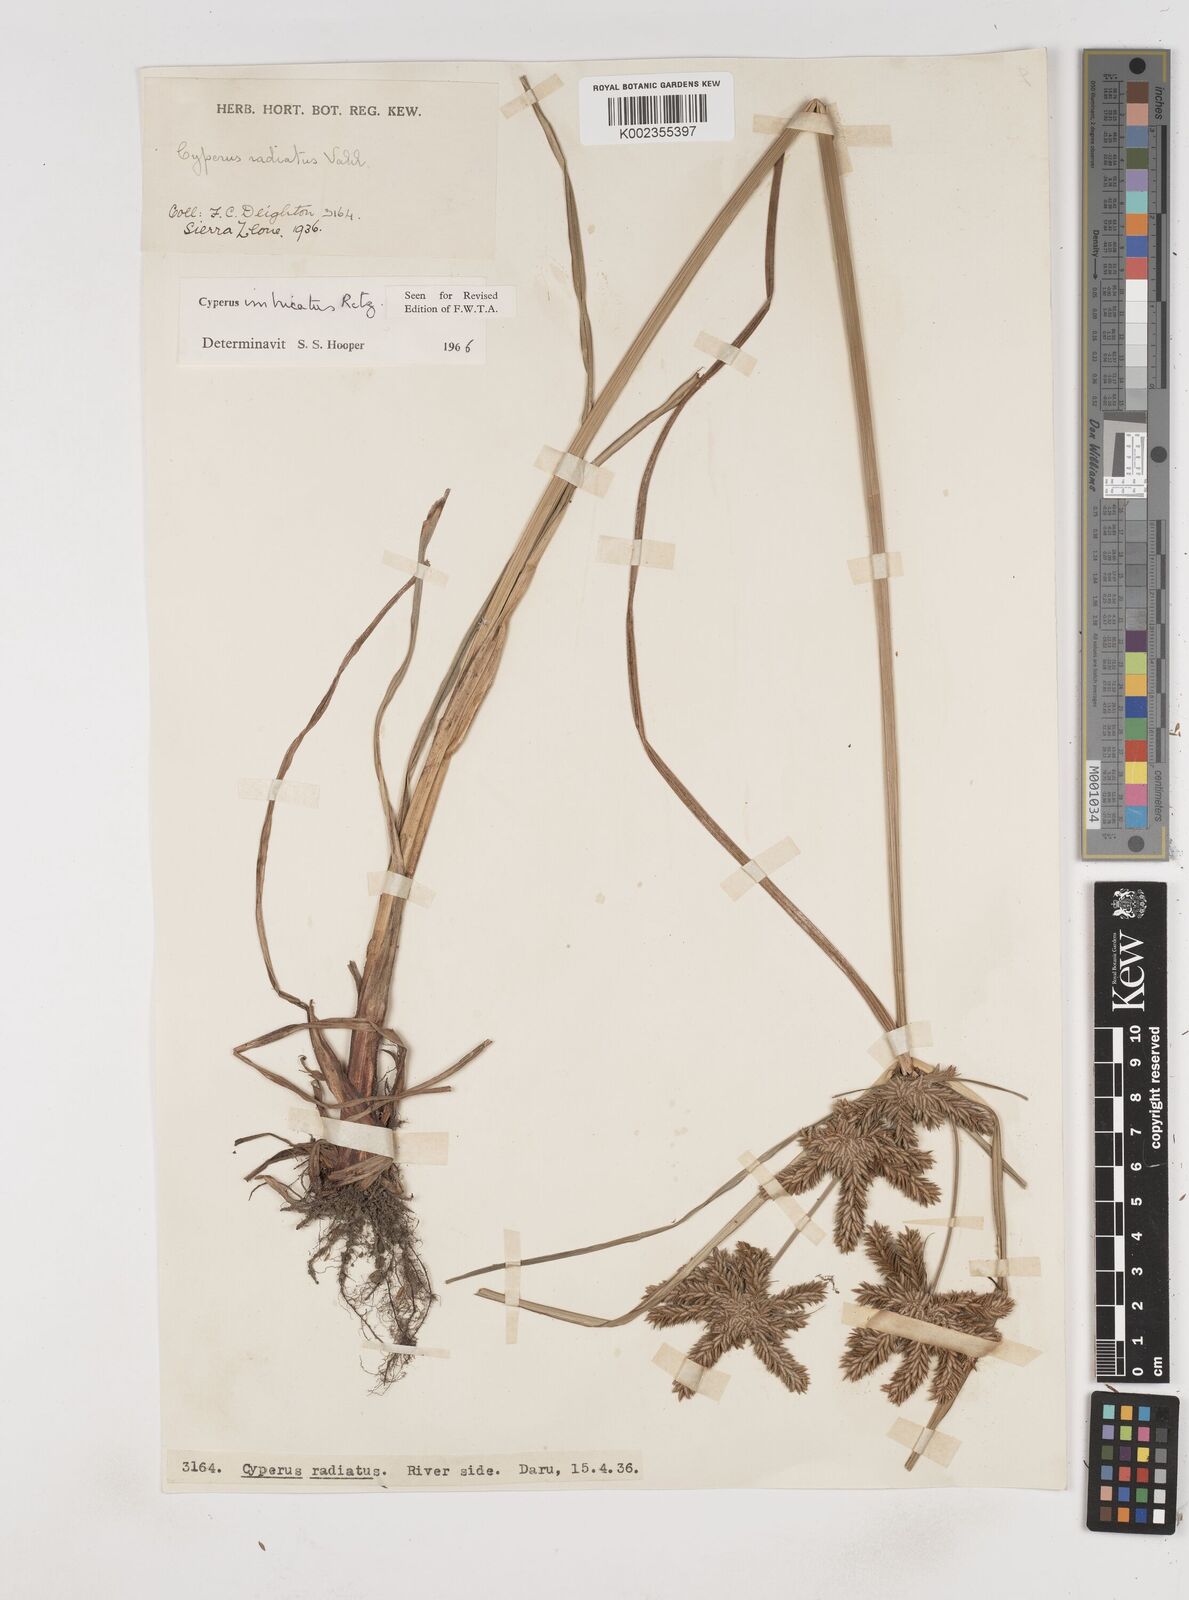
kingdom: Plantae
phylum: Tracheophyta
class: Liliopsida
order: Poales
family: Cyperaceae
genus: Cyperus
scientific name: Cyperus imbricatus
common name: Shingle flatsedge
